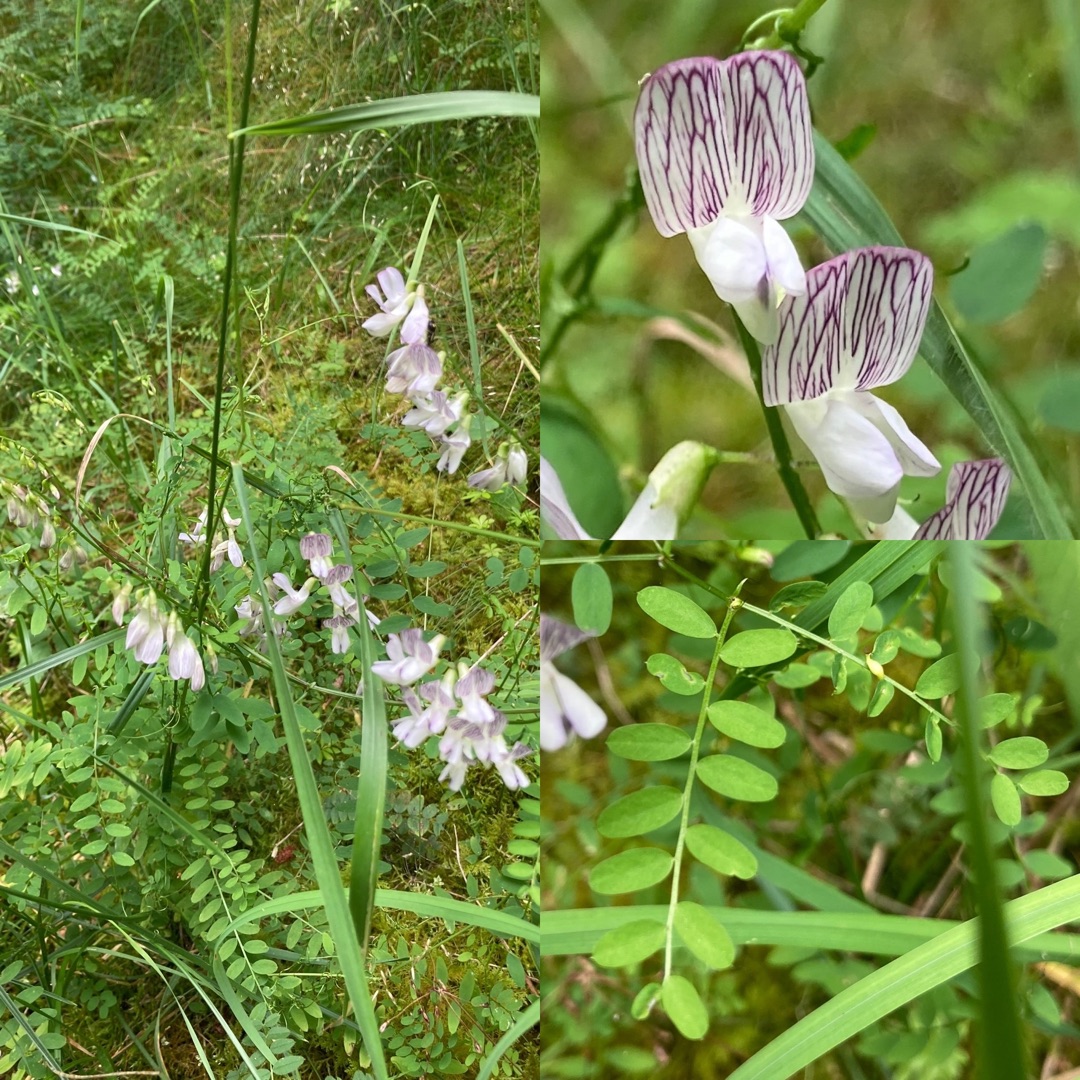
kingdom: Plantae
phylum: Tracheophyta
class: Magnoliopsida
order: Fabales
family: Fabaceae
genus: Vicia
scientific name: Vicia sylvatica
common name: Skov-vikke
